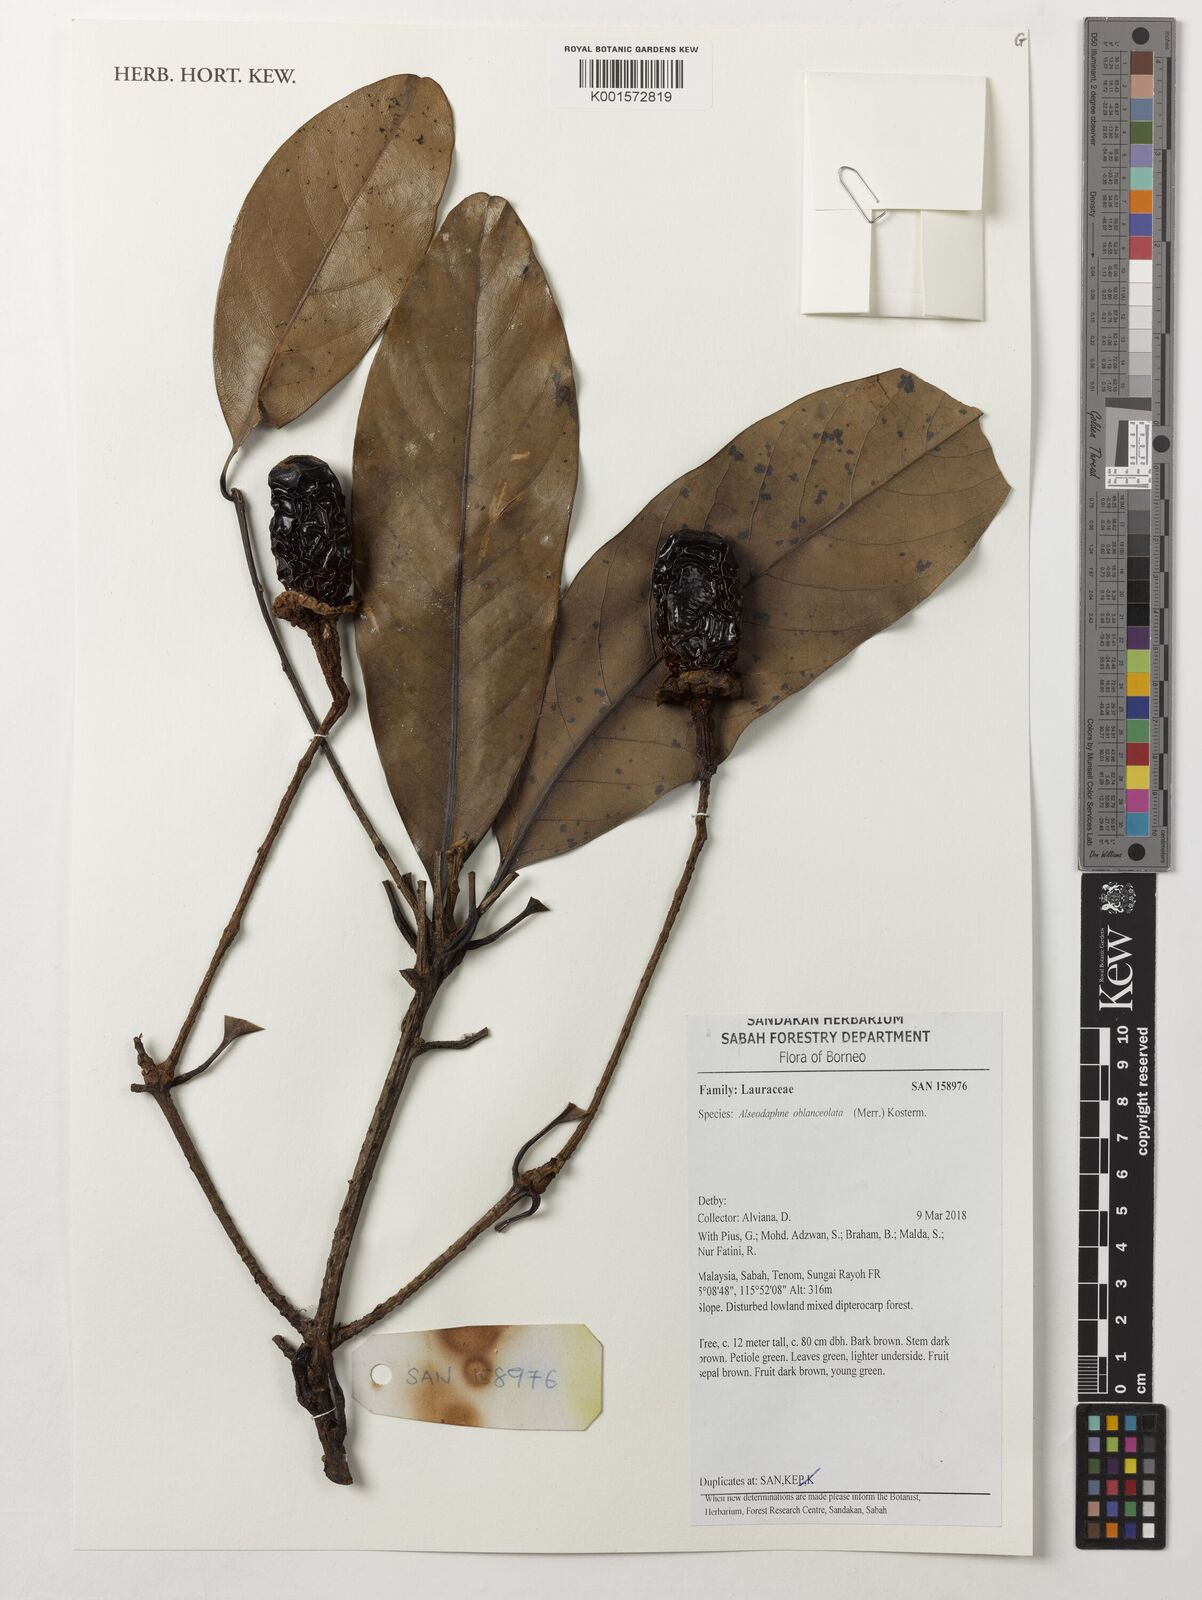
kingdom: Plantae
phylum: Tracheophyta
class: Magnoliopsida
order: Laurales
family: Lauraceae
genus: Alseodaphne
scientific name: Alseodaphne oblanceolata
